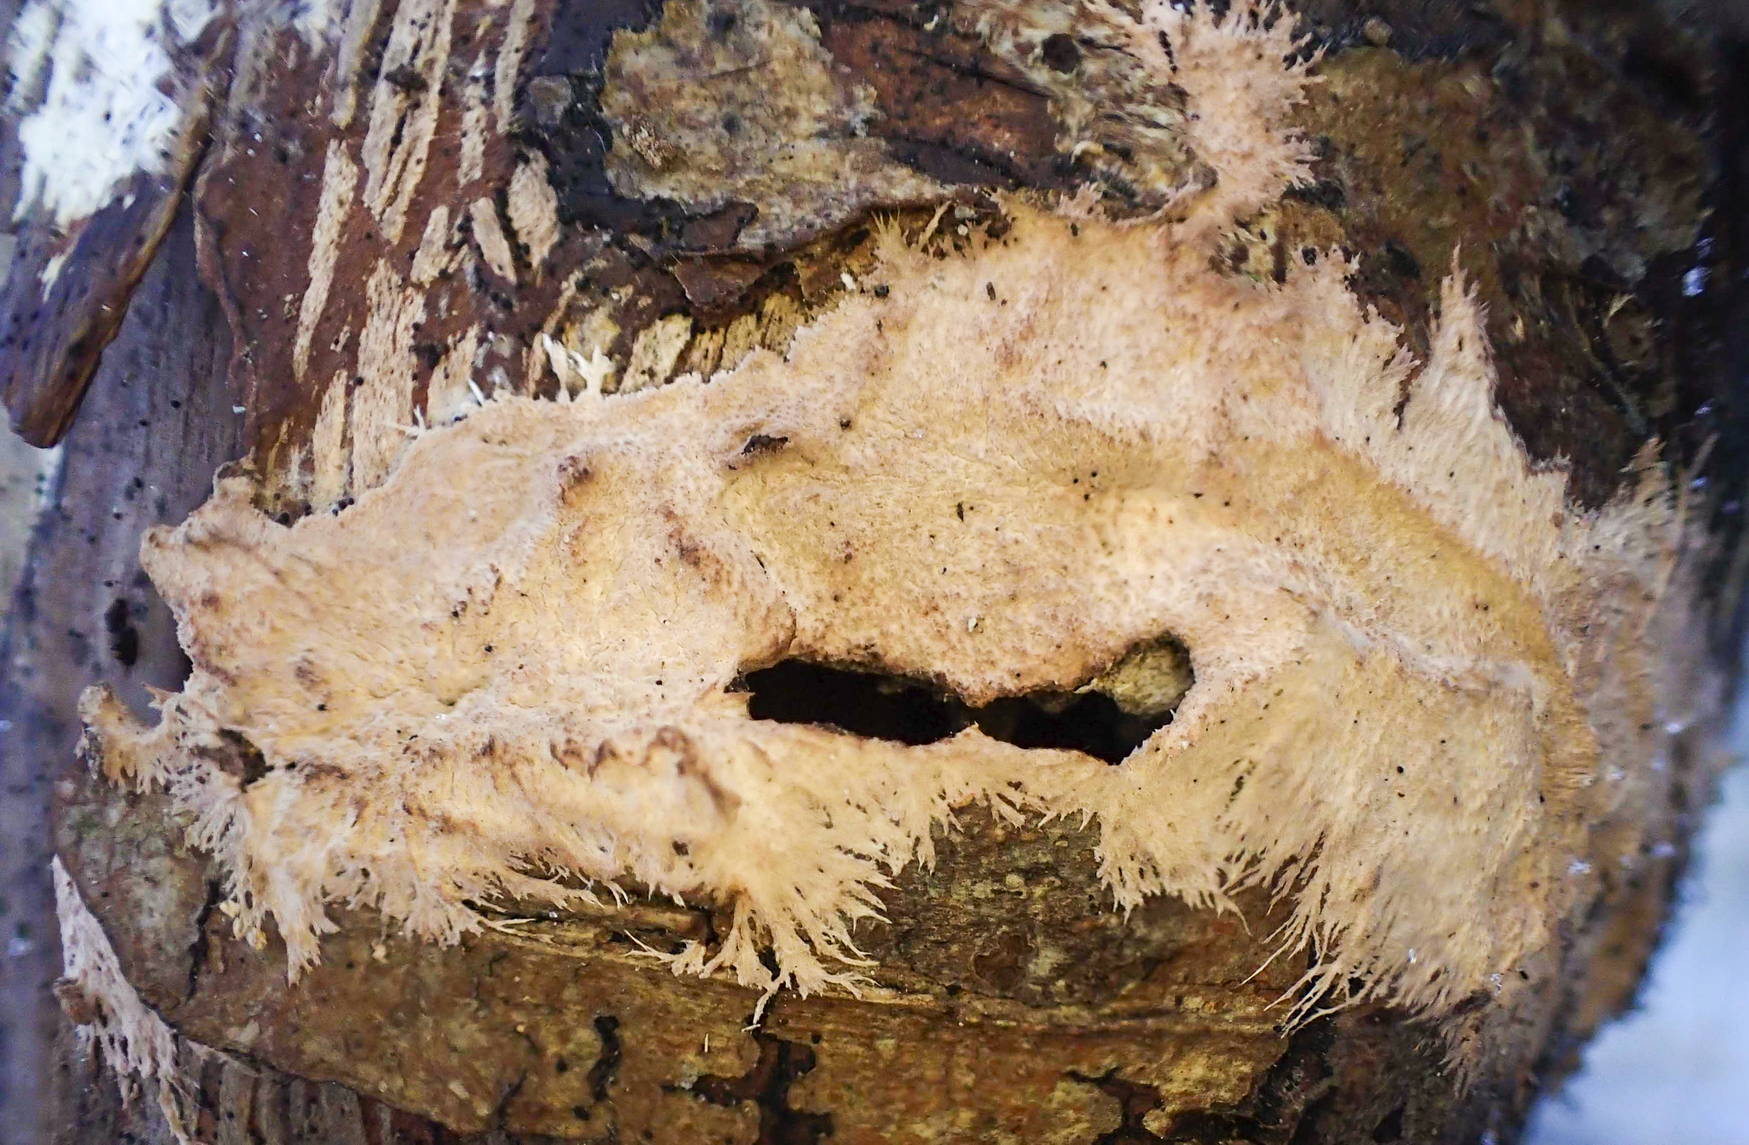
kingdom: Fungi
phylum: Basidiomycota
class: Agaricomycetes
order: Polyporales
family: Steccherinaceae
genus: Steccherinum
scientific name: Steccherinum fimbriatum
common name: trådet skønpig
